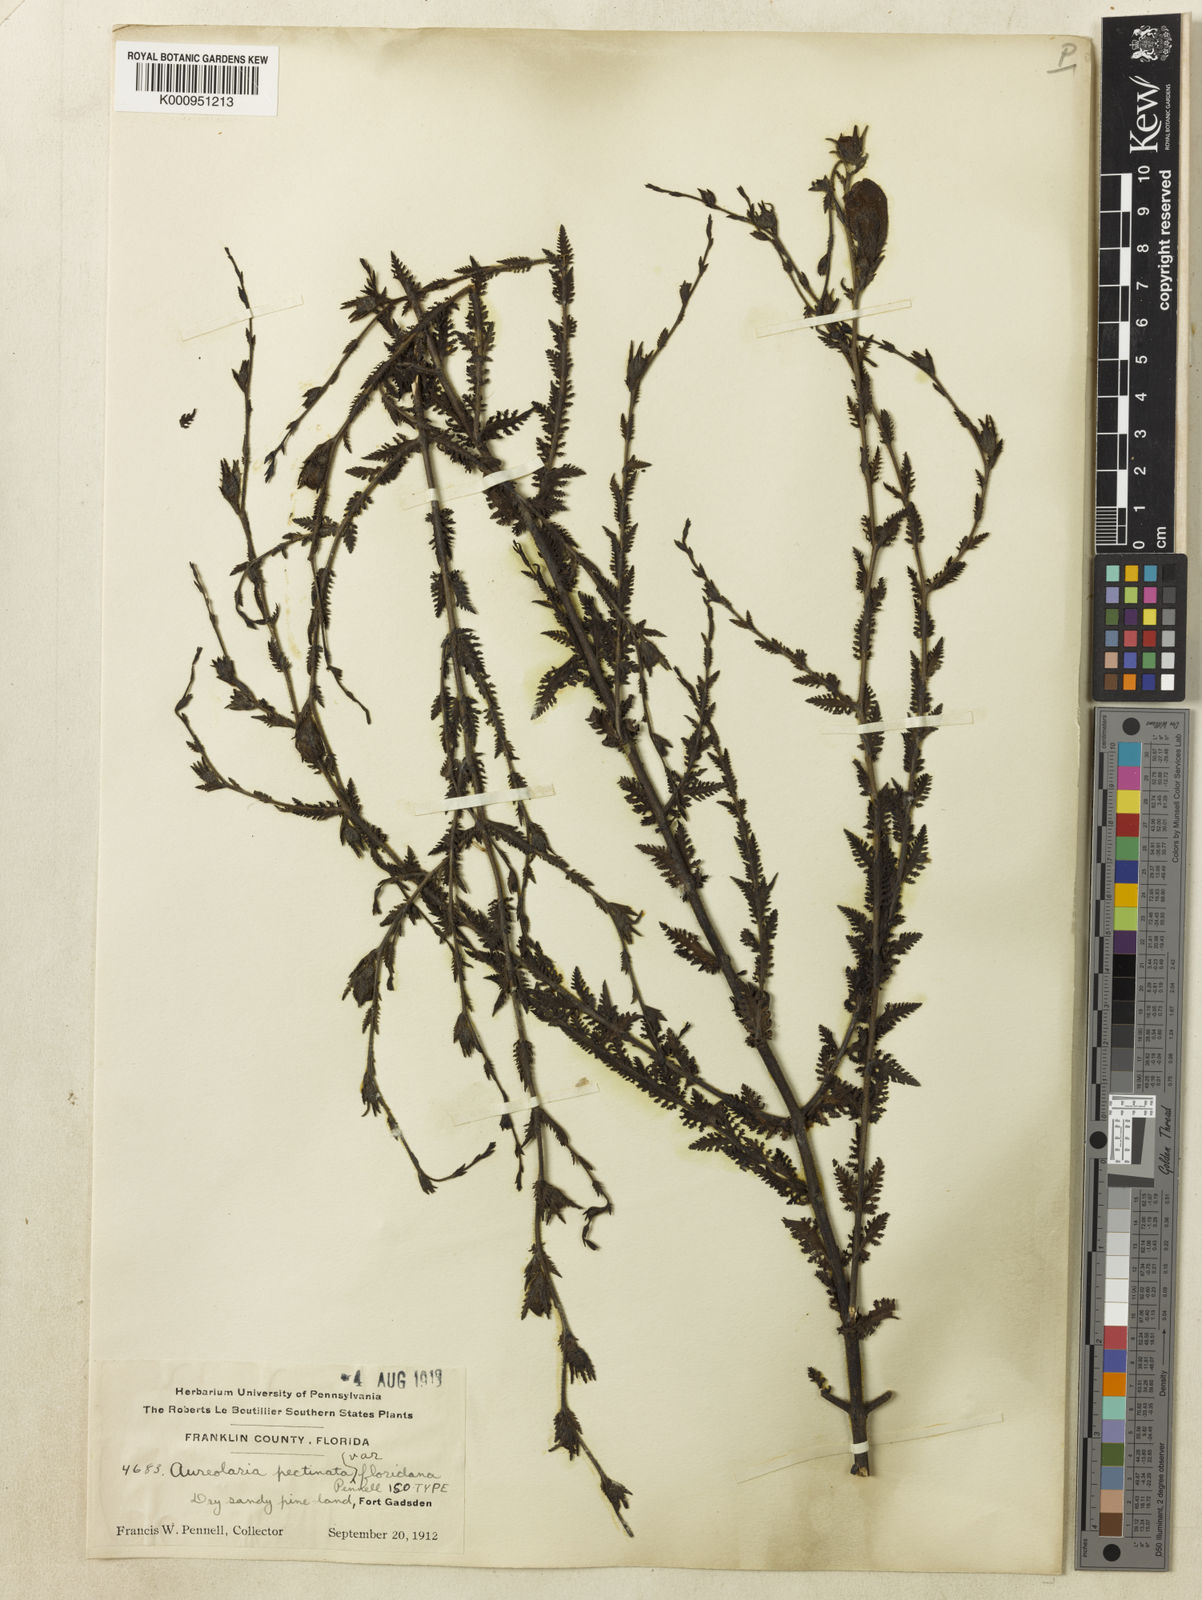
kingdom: Plantae
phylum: Tracheophyta
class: Magnoliopsida
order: Lamiales
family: Orobanchaceae
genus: Aureolaria
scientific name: Aureolaria
